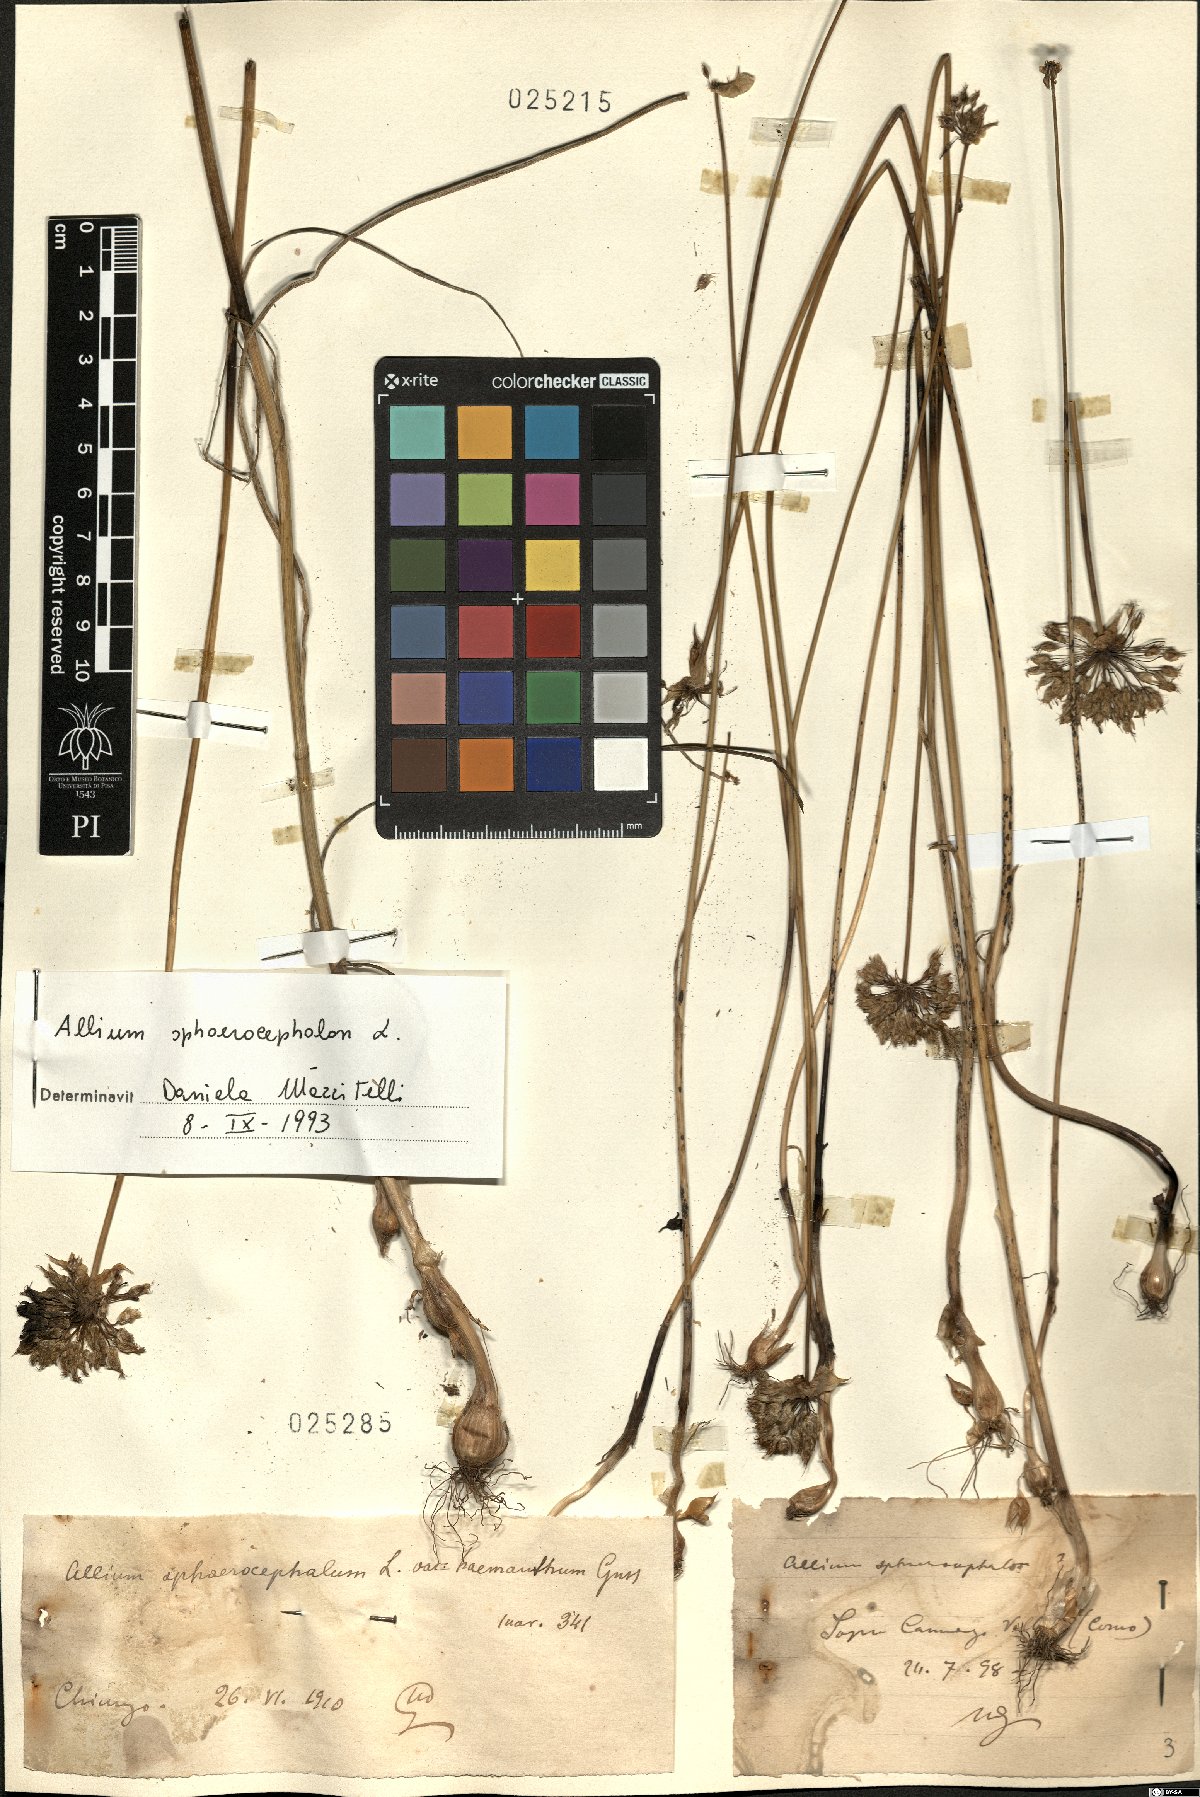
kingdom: Plantae
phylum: Tracheophyta
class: Liliopsida
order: Asparagales
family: Amaryllidaceae
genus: Allium
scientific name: Allium sphaerocephalon
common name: Round-headed leek
